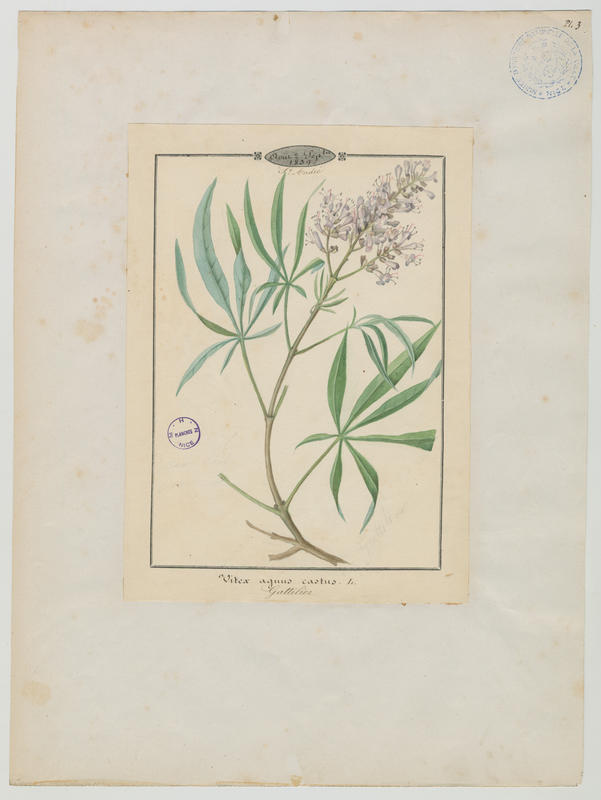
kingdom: Plantae
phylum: Tracheophyta
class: Magnoliopsida
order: Lamiales
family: Lamiaceae
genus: Vitex
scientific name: Vitex agnus-castus
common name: Chasteberry
